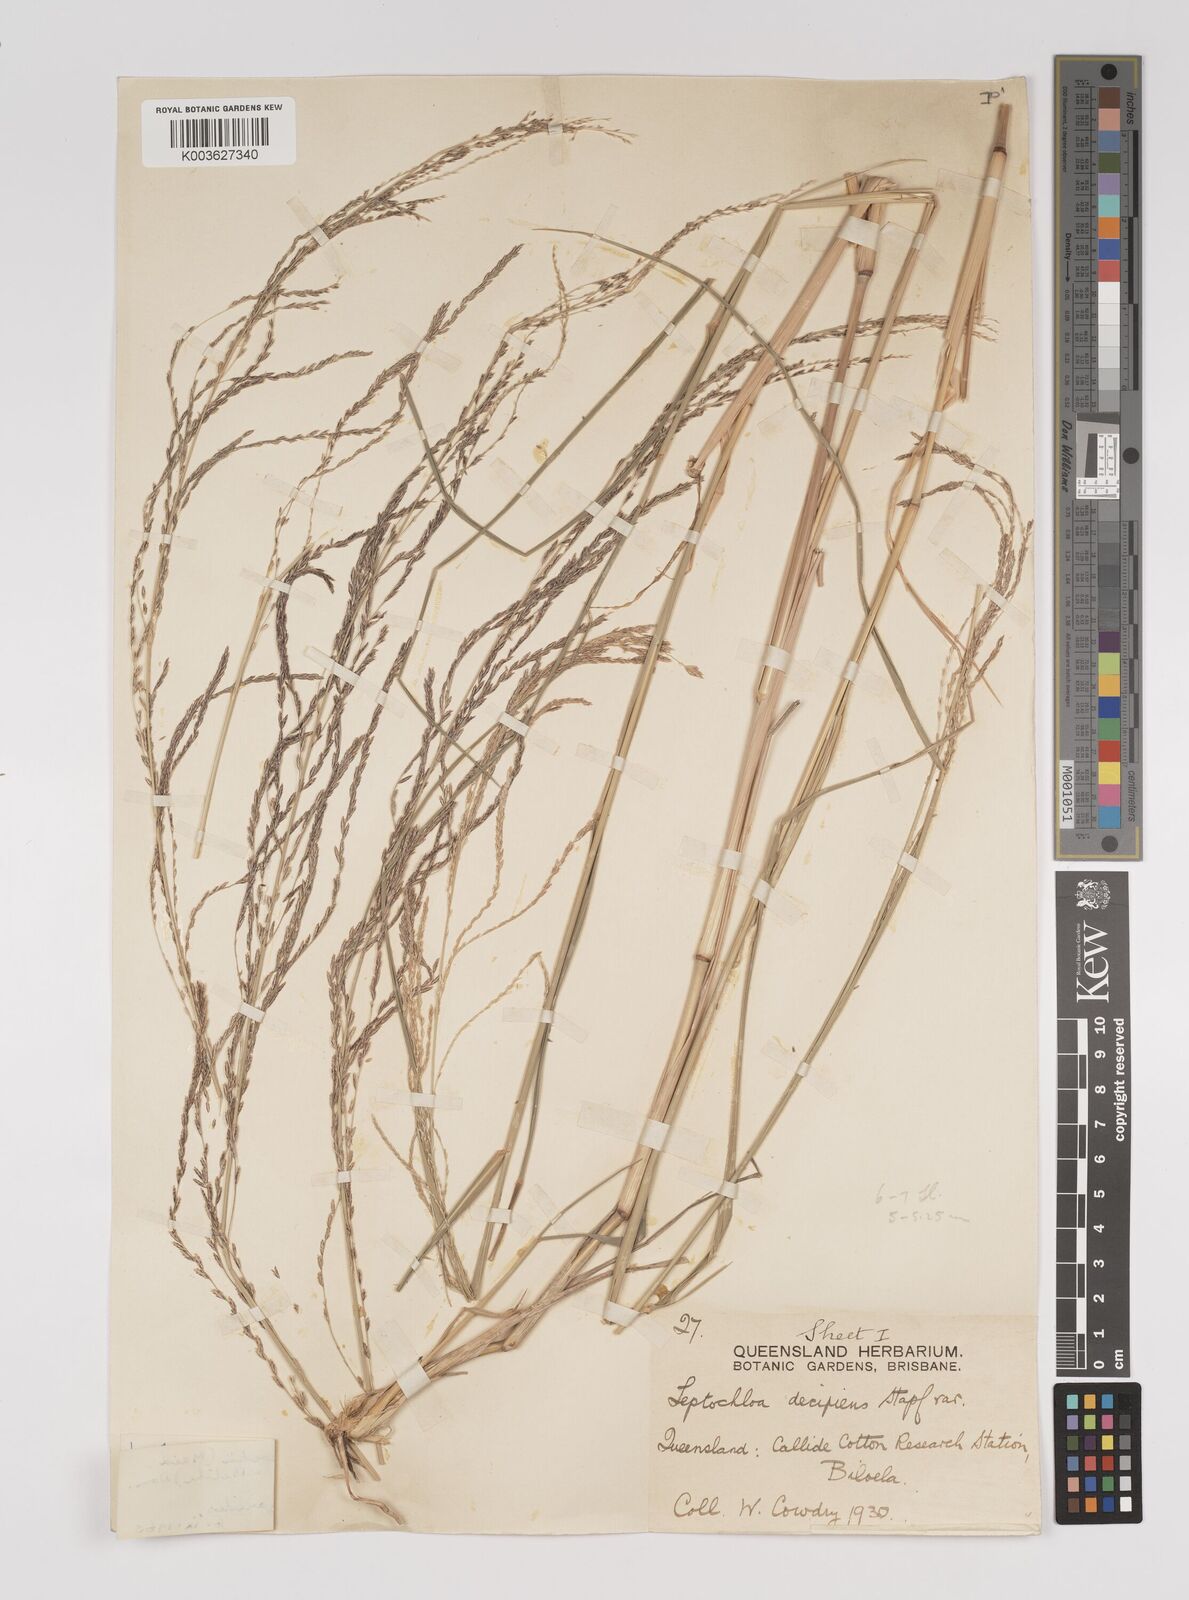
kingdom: Plantae
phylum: Tracheophyta
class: Liliopsida
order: Poales
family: Poaceae
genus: Leptochloa
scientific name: Leptochloa decipiens
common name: Australian sprangletop
